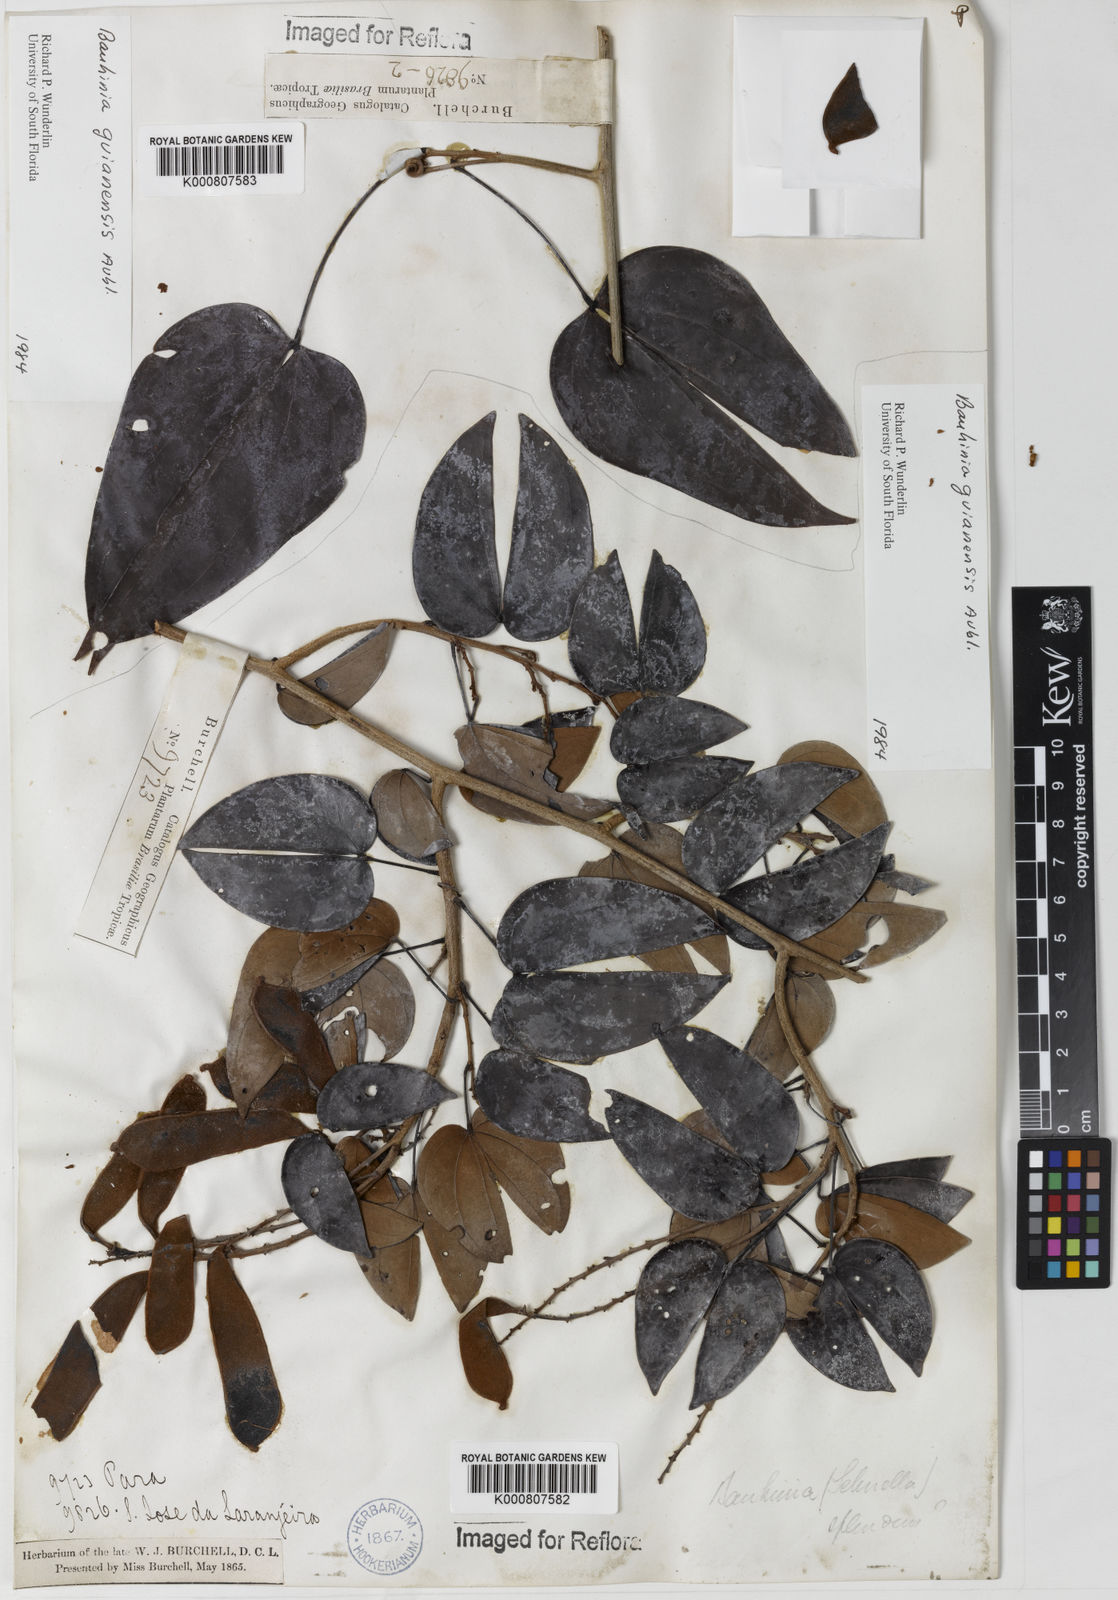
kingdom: Plantae
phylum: Tracheophyta
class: Magnoliopsida
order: Fabales
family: Fabaceae
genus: Schnella
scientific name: Schnella guianensis
